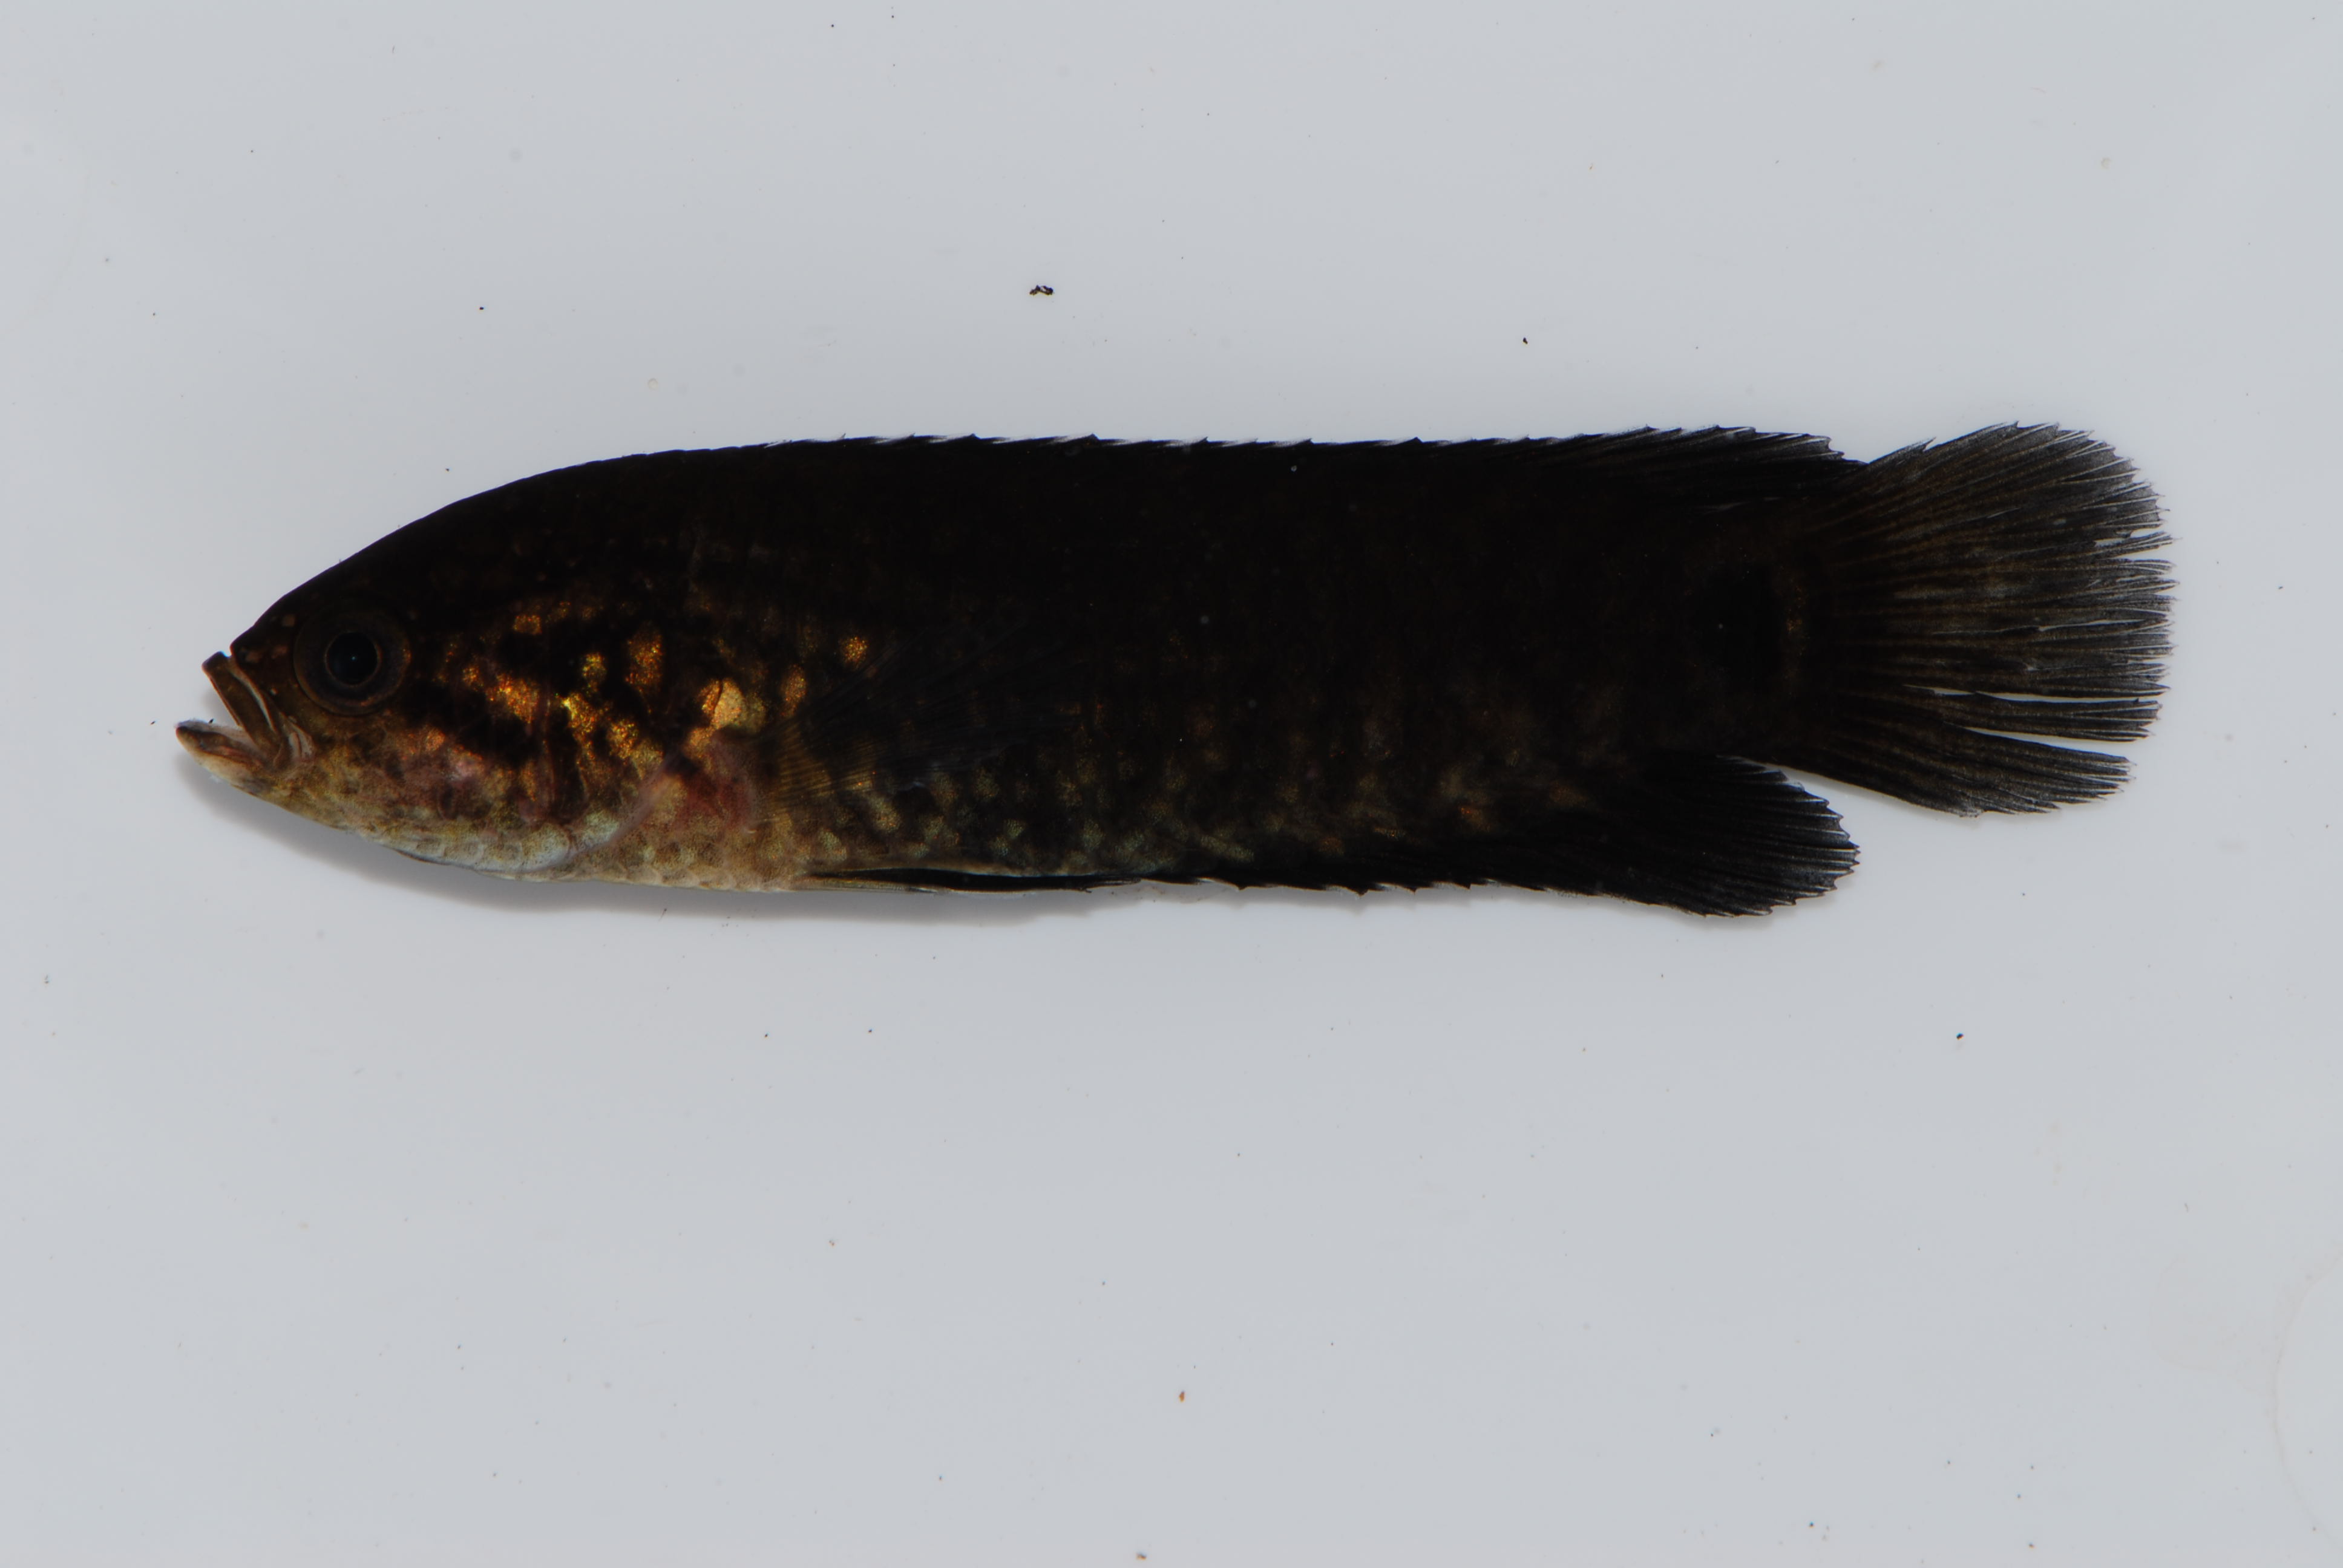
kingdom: Animalia
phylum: Chordata
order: Osteoglossiformes
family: Mormyridae
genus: Marcusenius
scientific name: Marcusenius altisambesi
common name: Bulldog
